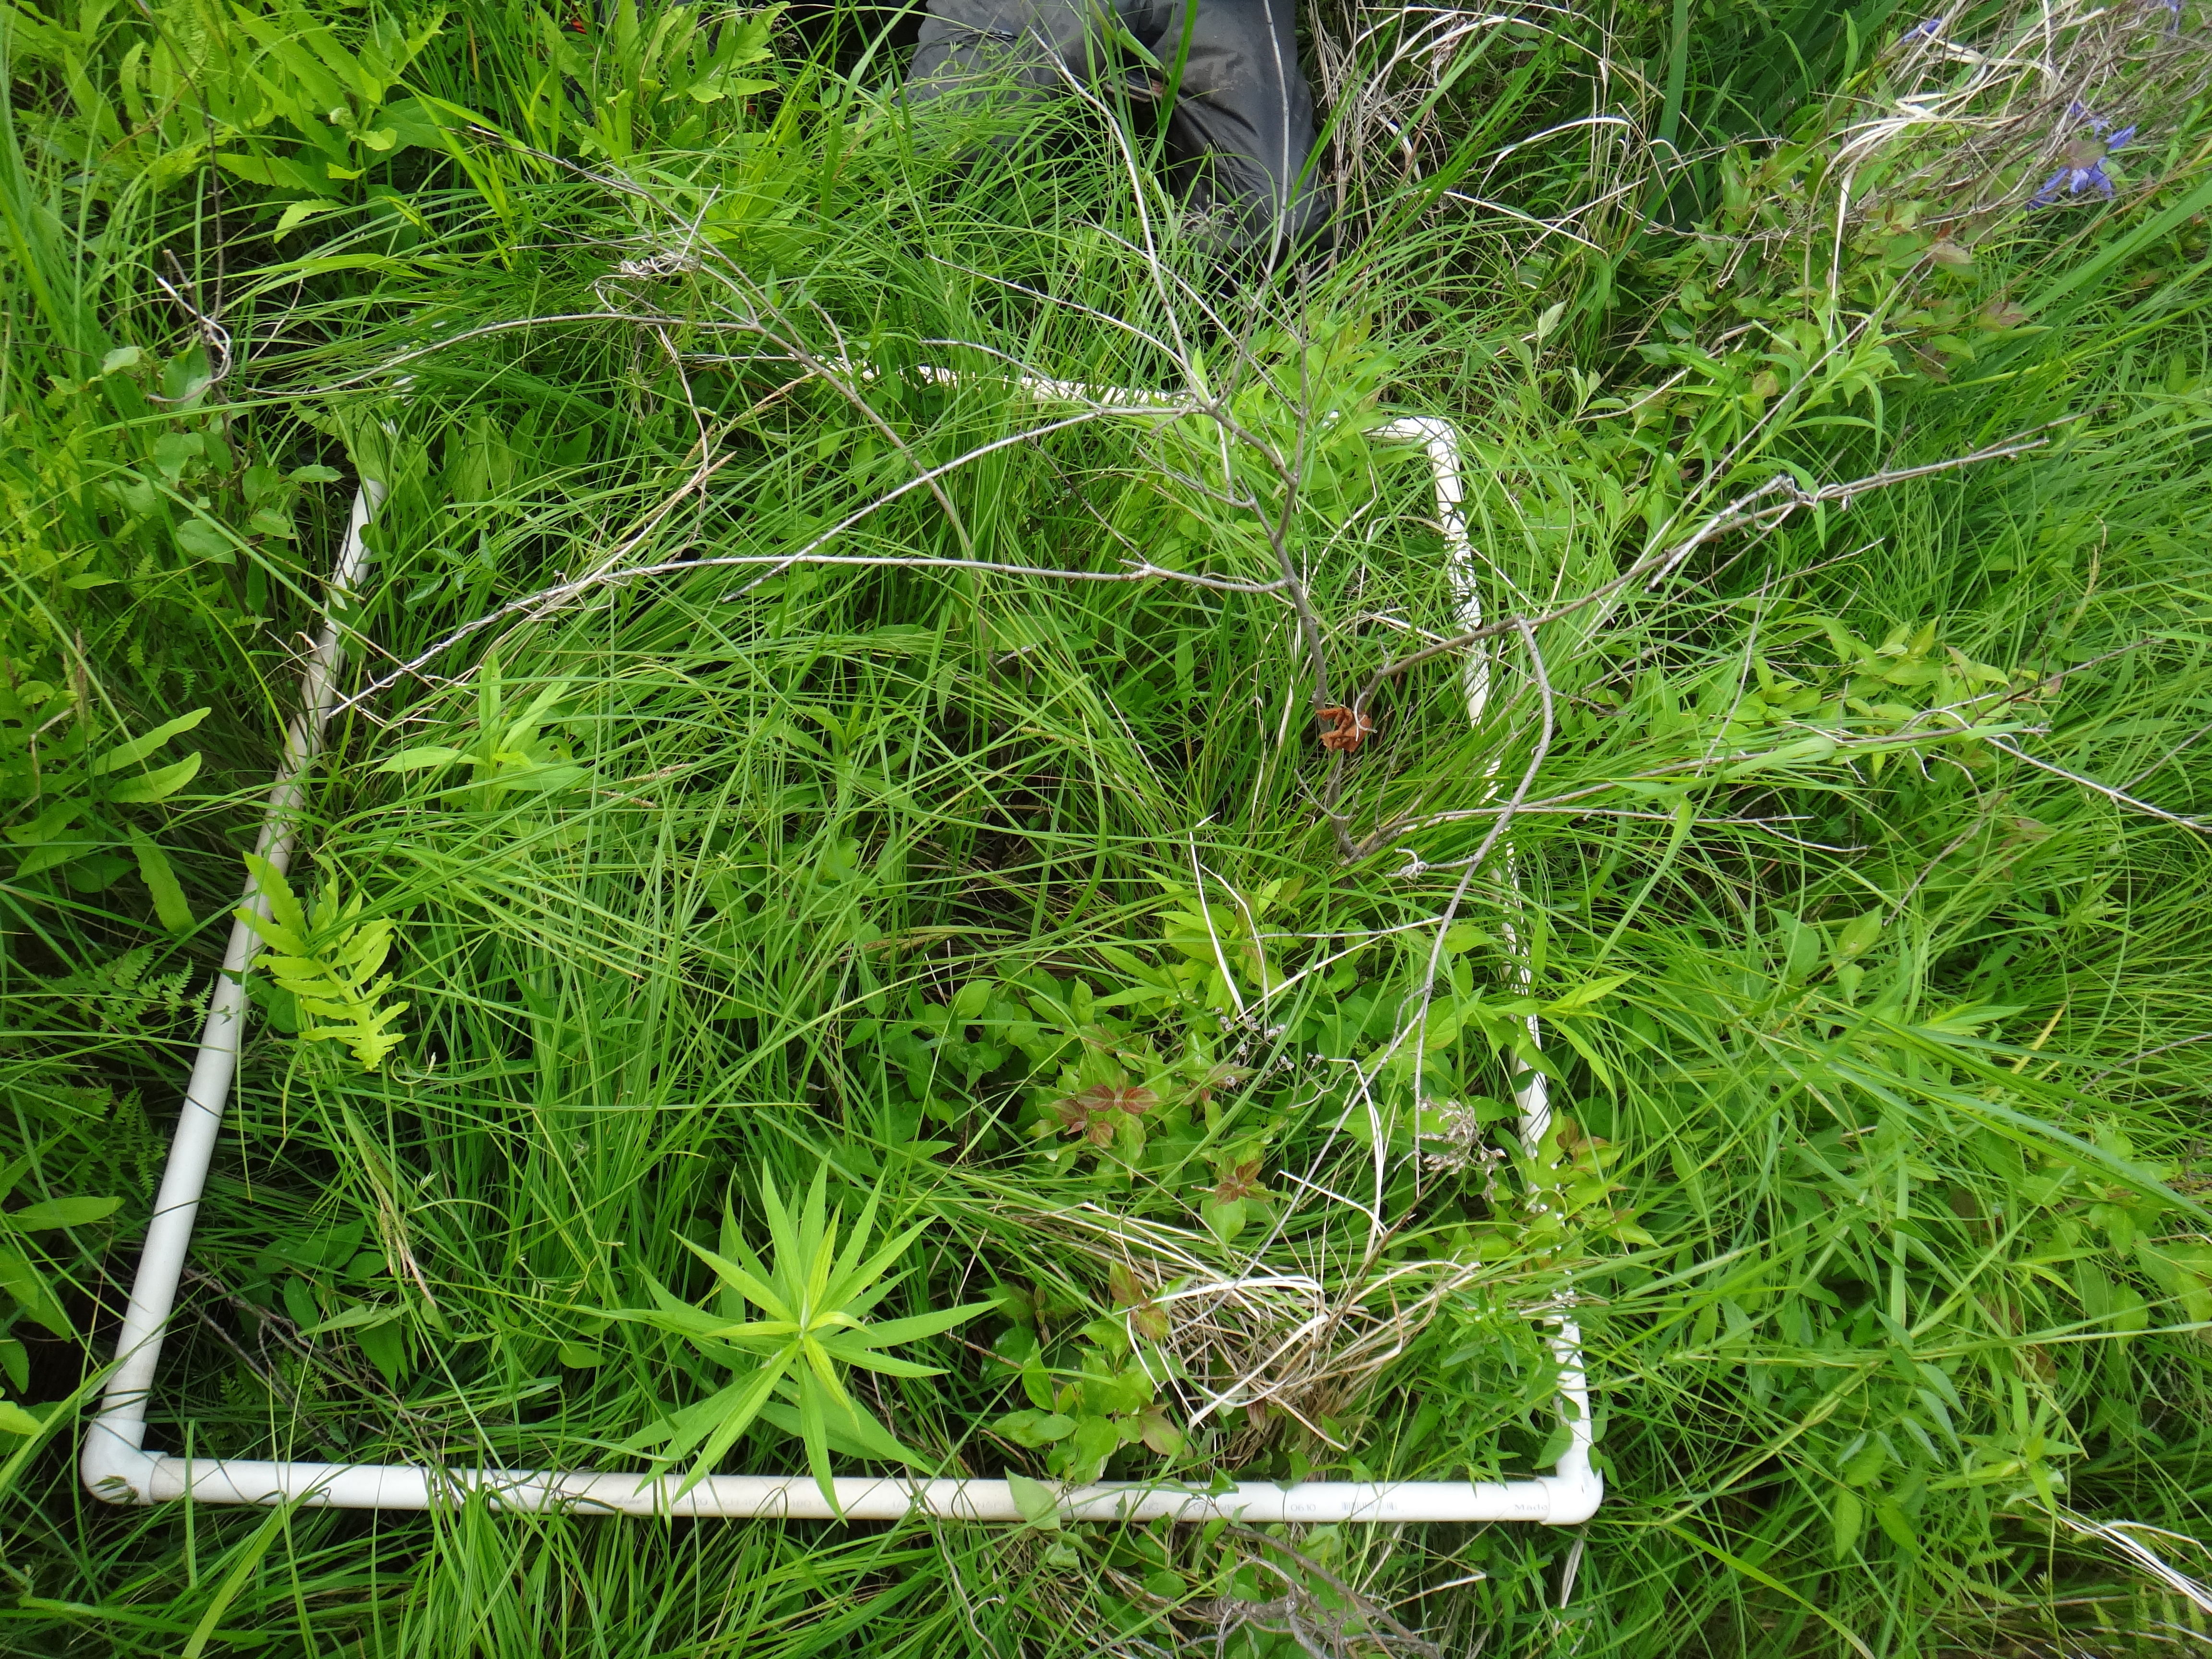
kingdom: Plantae
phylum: Tracheophyta
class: Magnoliopsida
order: Fabales
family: Fabaceae
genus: Lathyrus
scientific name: Lathyrus palustris
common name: Marsh pea
